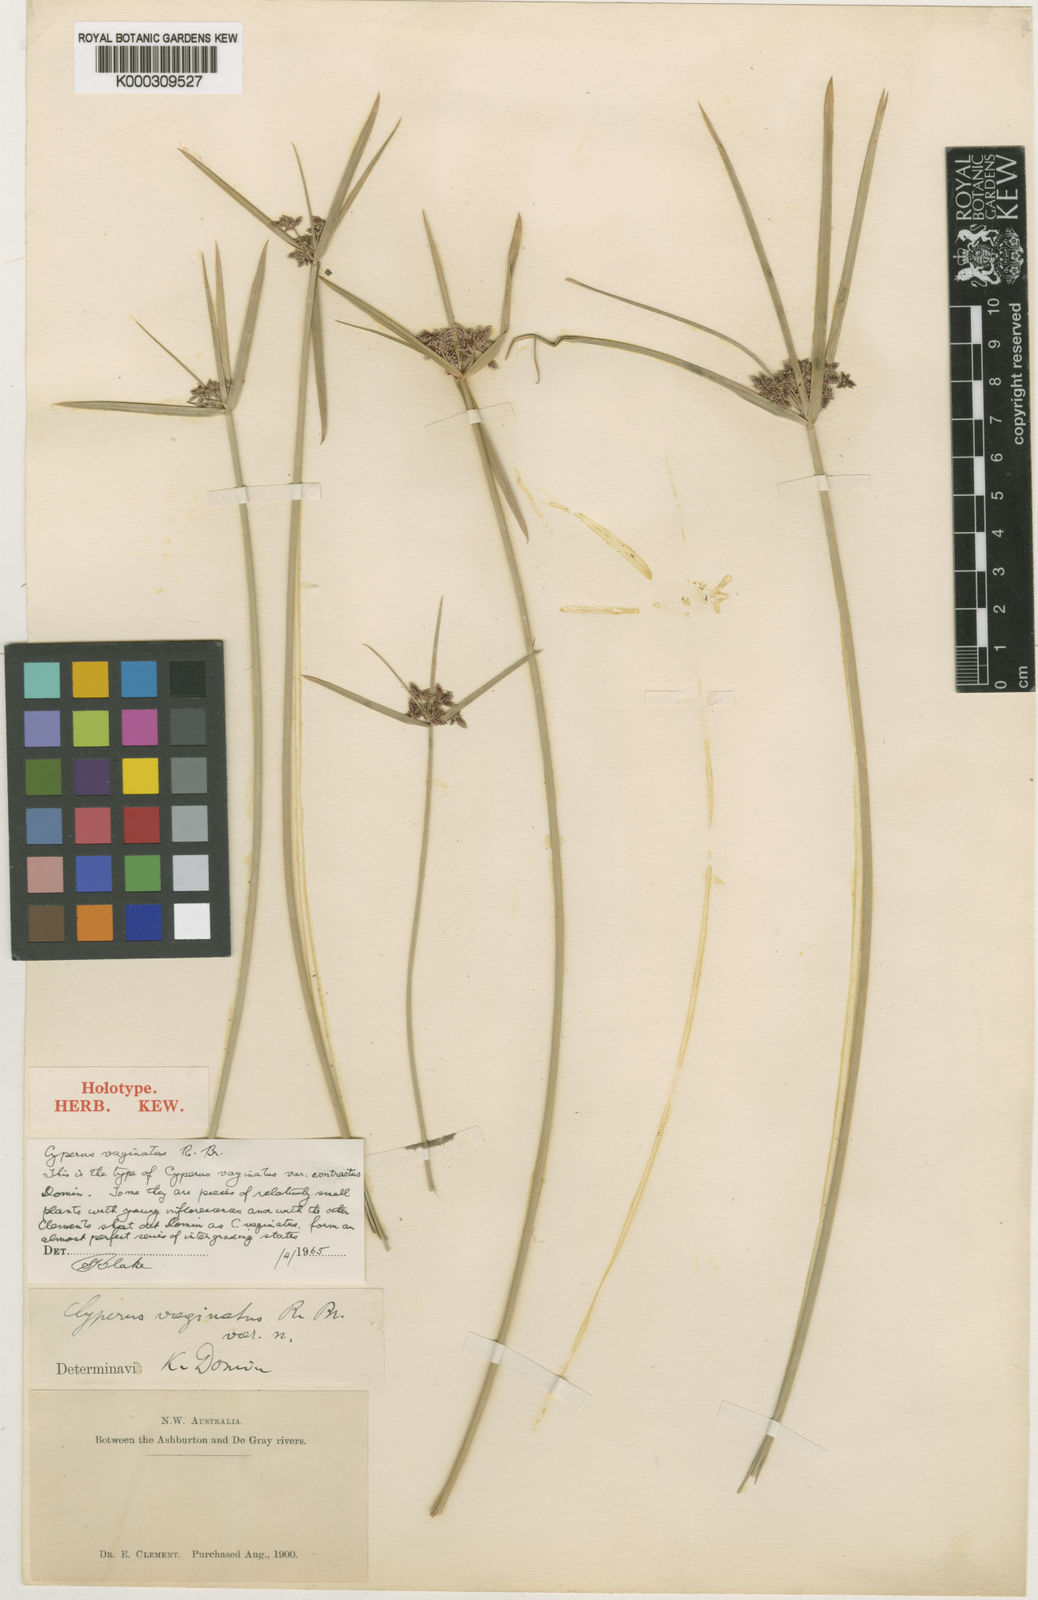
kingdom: Plantae
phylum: Tracheophyta
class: Liliopsida
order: Poales
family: Cyperaceae
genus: Cyperus
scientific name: Cyperus vaginatus
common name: Stiff-leaved flat-sedge
